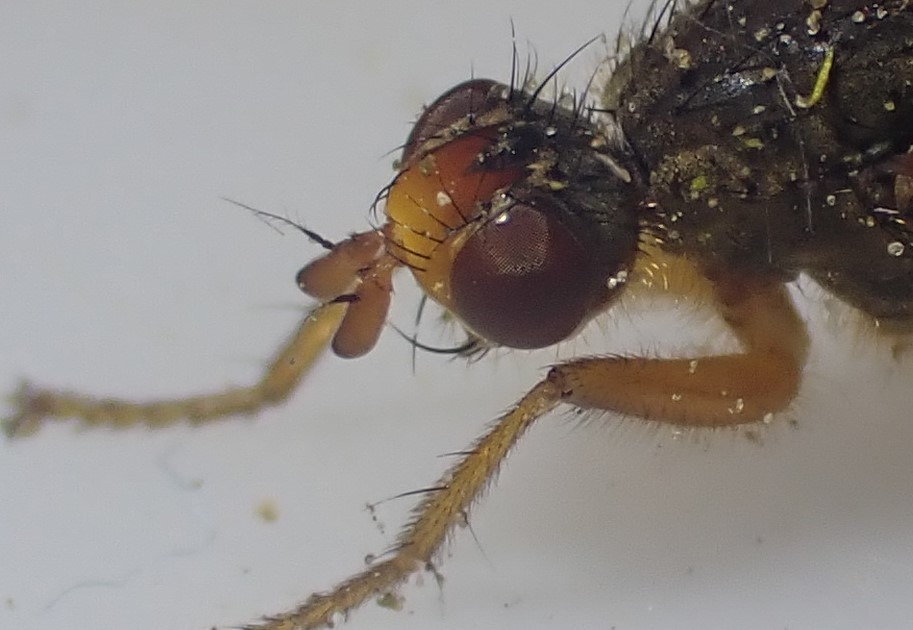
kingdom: Animalia
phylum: Arthropoda
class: Insecta
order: Diptera
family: Scathophagidae
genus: Scathophaga
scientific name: Scathophaga inquinata
